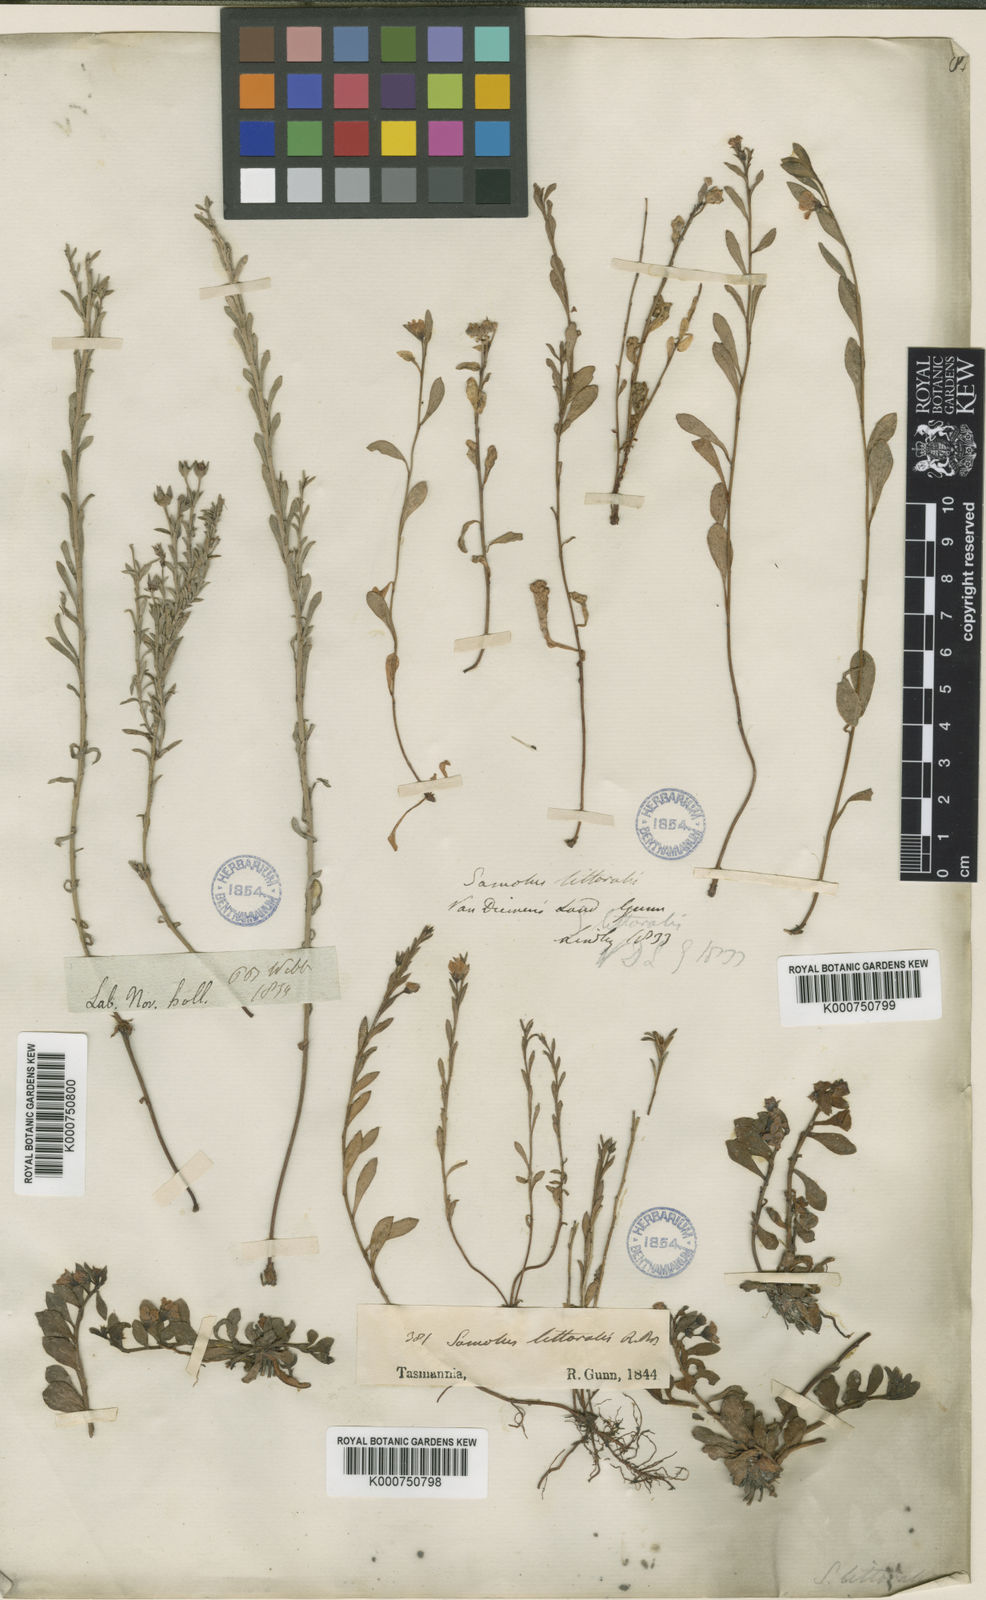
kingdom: Plantae
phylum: Tracheophyta
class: Magnoliopsida
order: Ericales
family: Primulaceae
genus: Samolus
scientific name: Samolus repens
